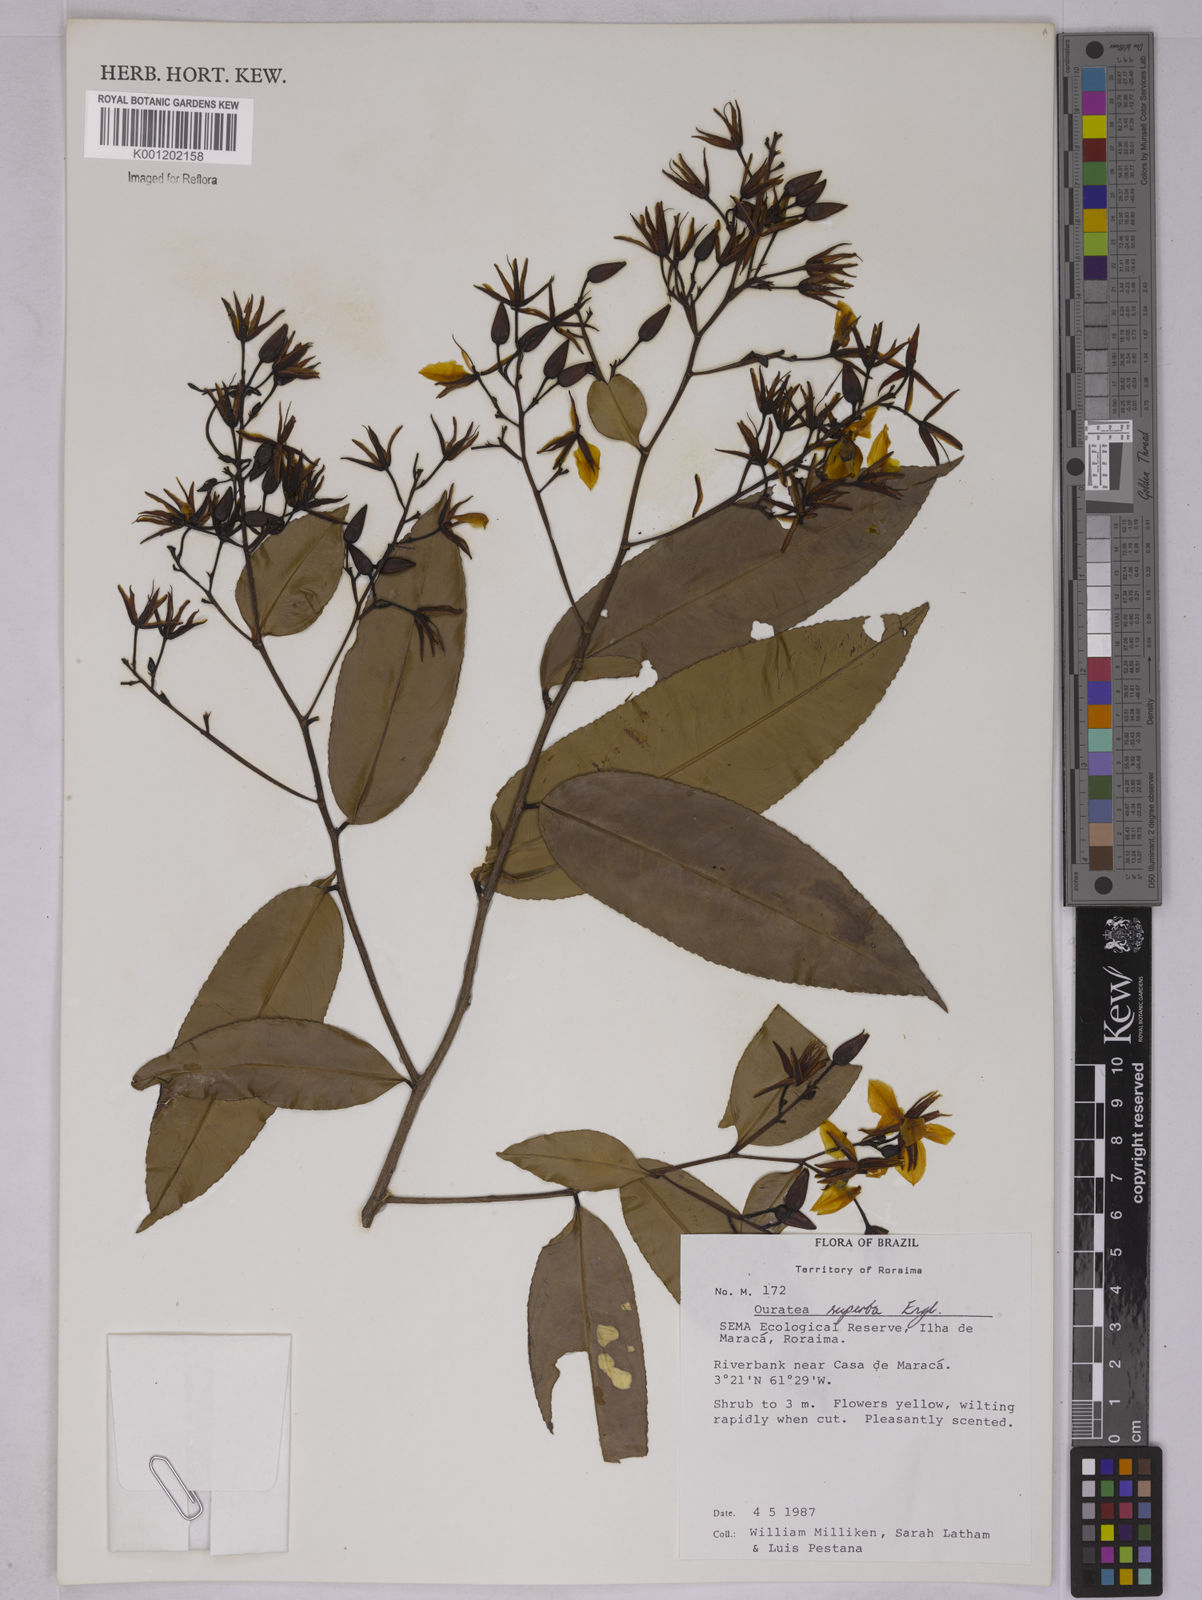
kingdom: Plantae
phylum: Tracheophyta
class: Magnoliopsida
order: Malpighiales
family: Ochnaceae
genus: Ouratea
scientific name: Ouratea superba
